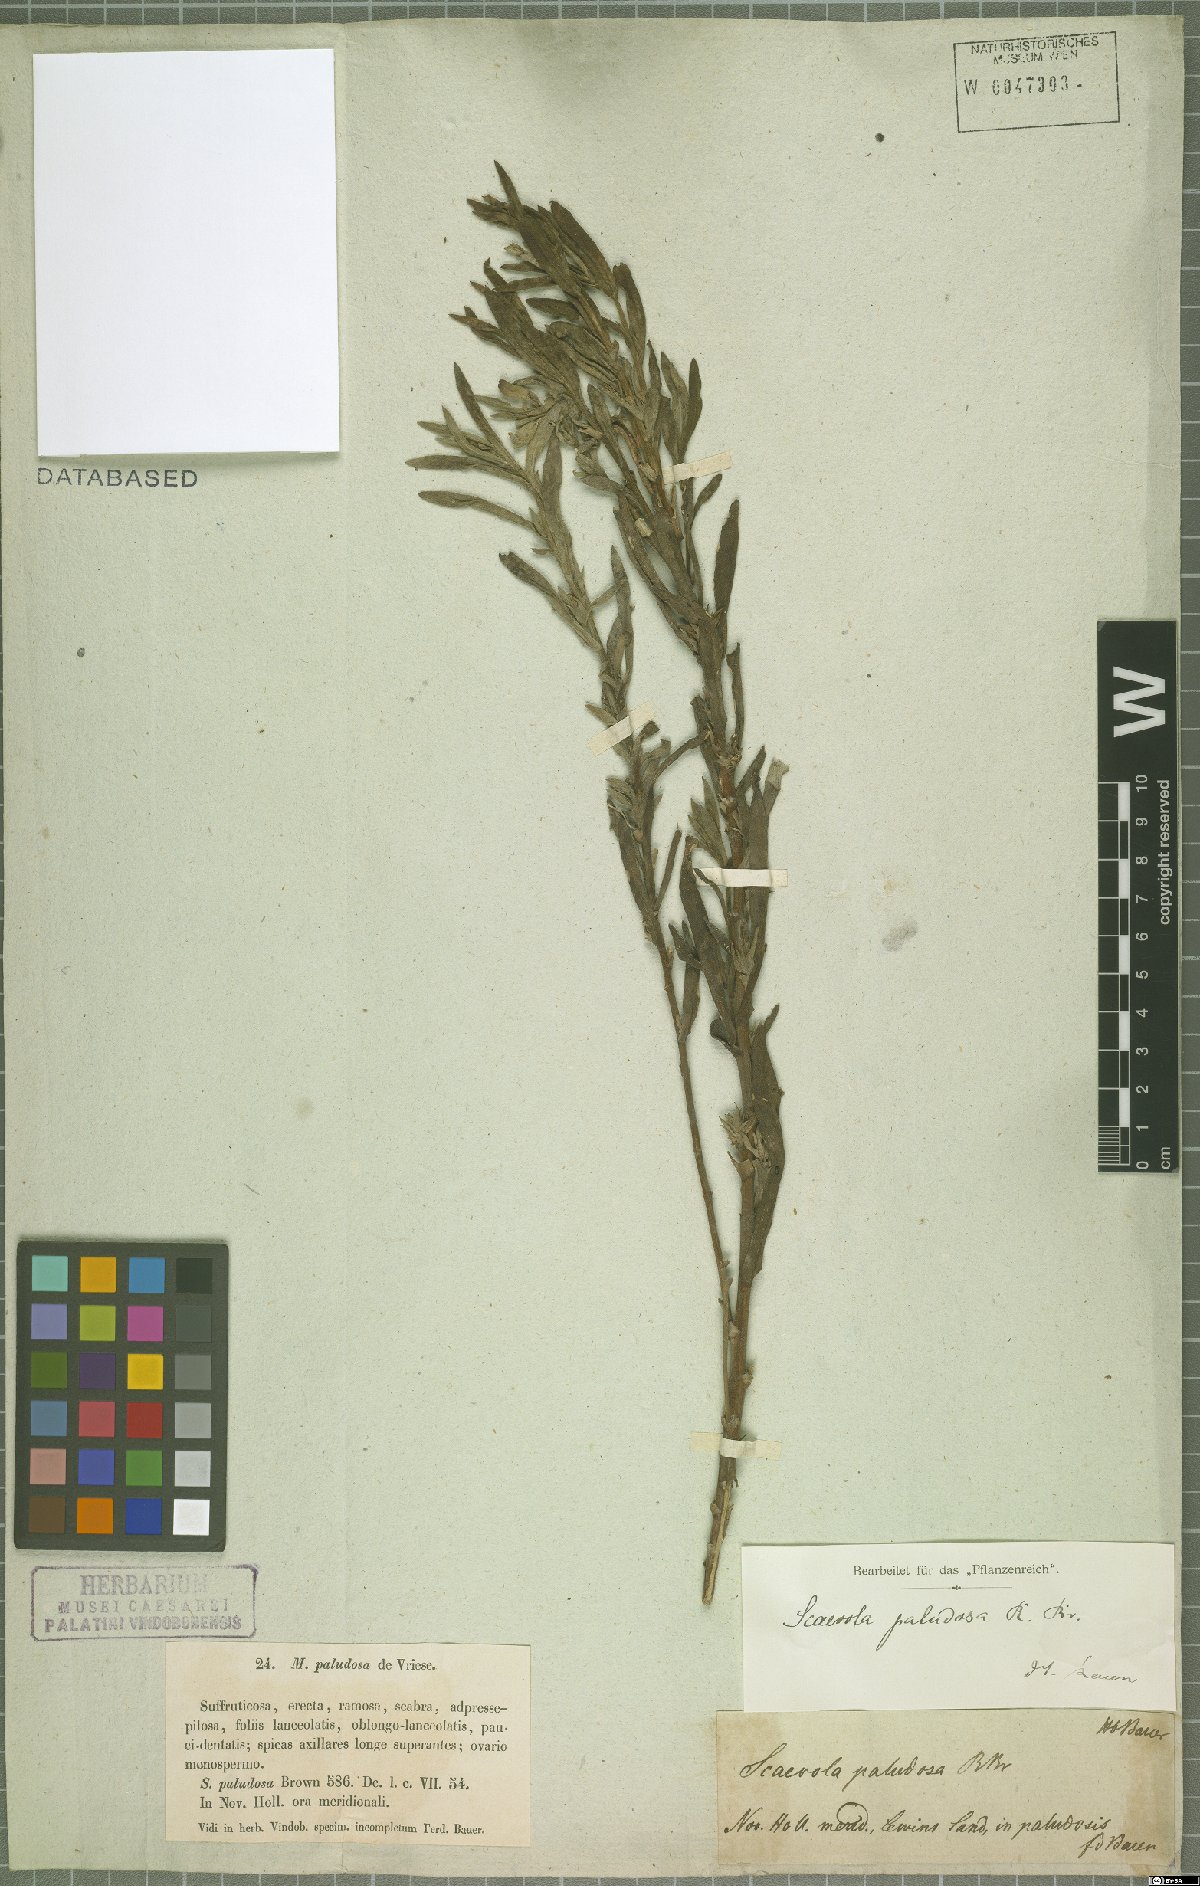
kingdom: Plantae
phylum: Tracheophyta
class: Magnoliopsida
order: Asterales
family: Goodeniaceae
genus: Scaevola
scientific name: Scaevola paludosa
